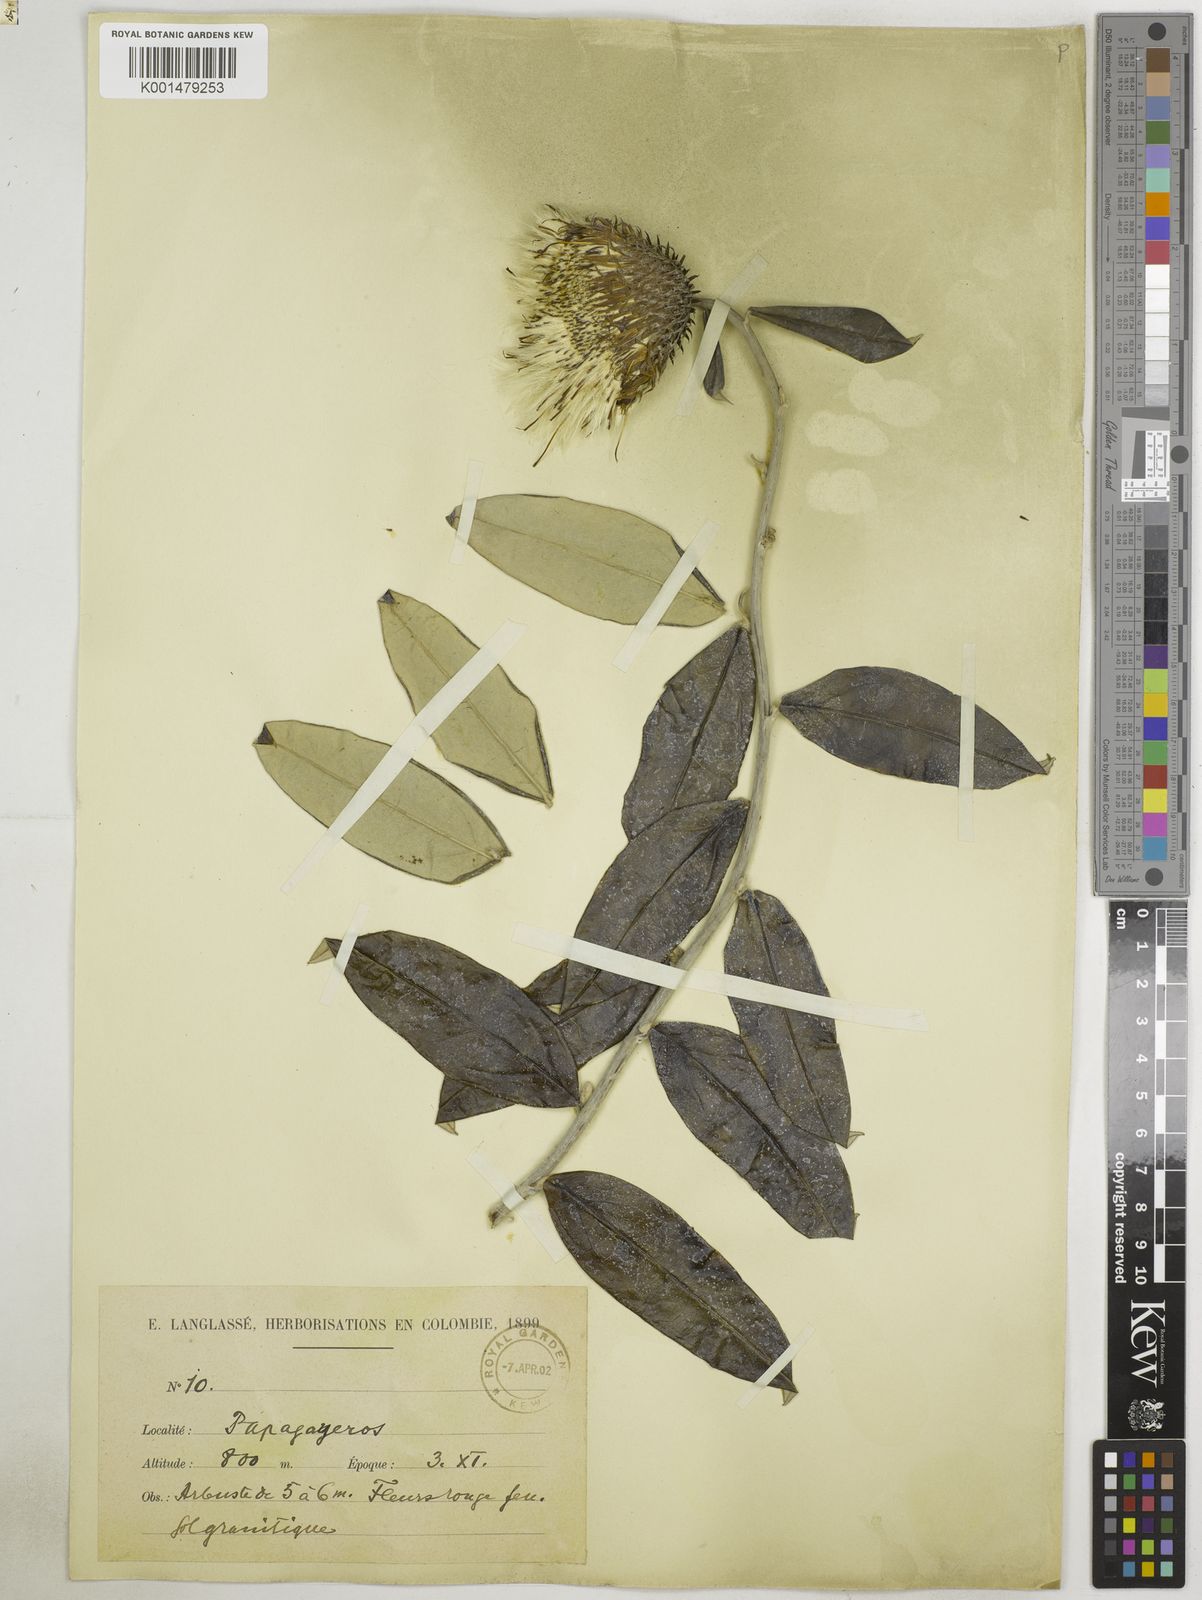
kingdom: Plantae
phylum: Tracheophyta
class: Magnoliopsida
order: Asterales
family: Asteraceae
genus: Lycoseris
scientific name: Lycoseris mexicana
